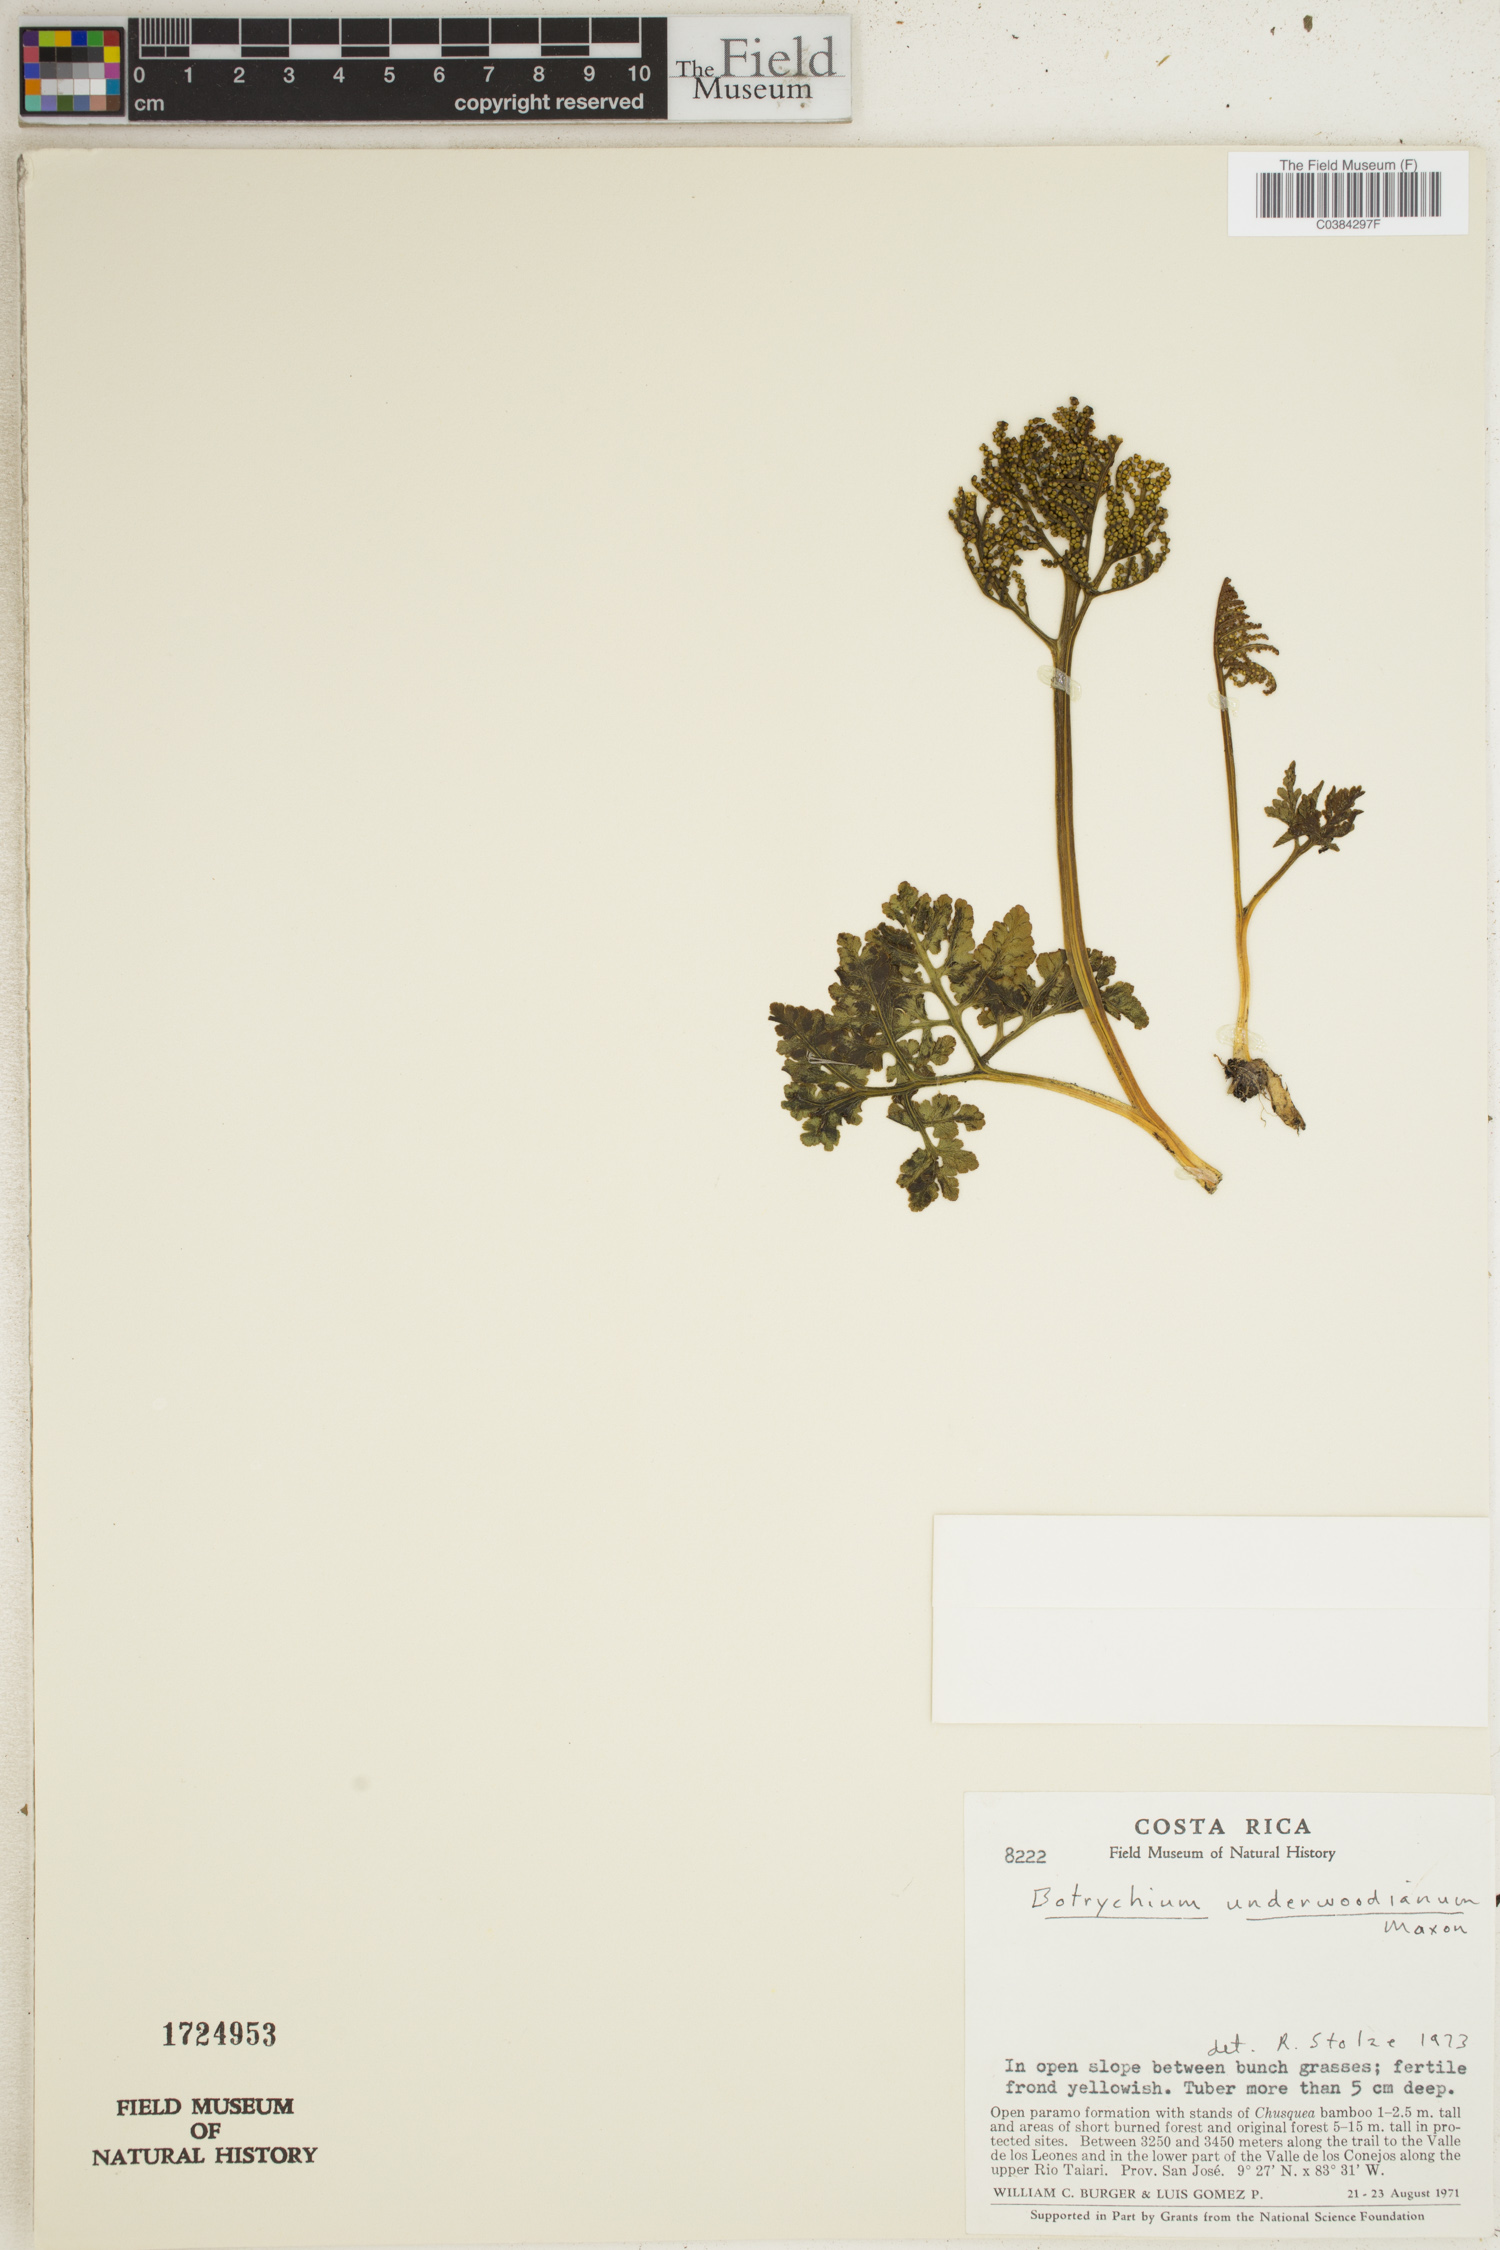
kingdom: Plantae
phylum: Tracheophyta
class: Polypodiopsida
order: Ophioglossales
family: Ophioglossaceae
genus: Sceptridium
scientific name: Sceptridium underwoodianum
